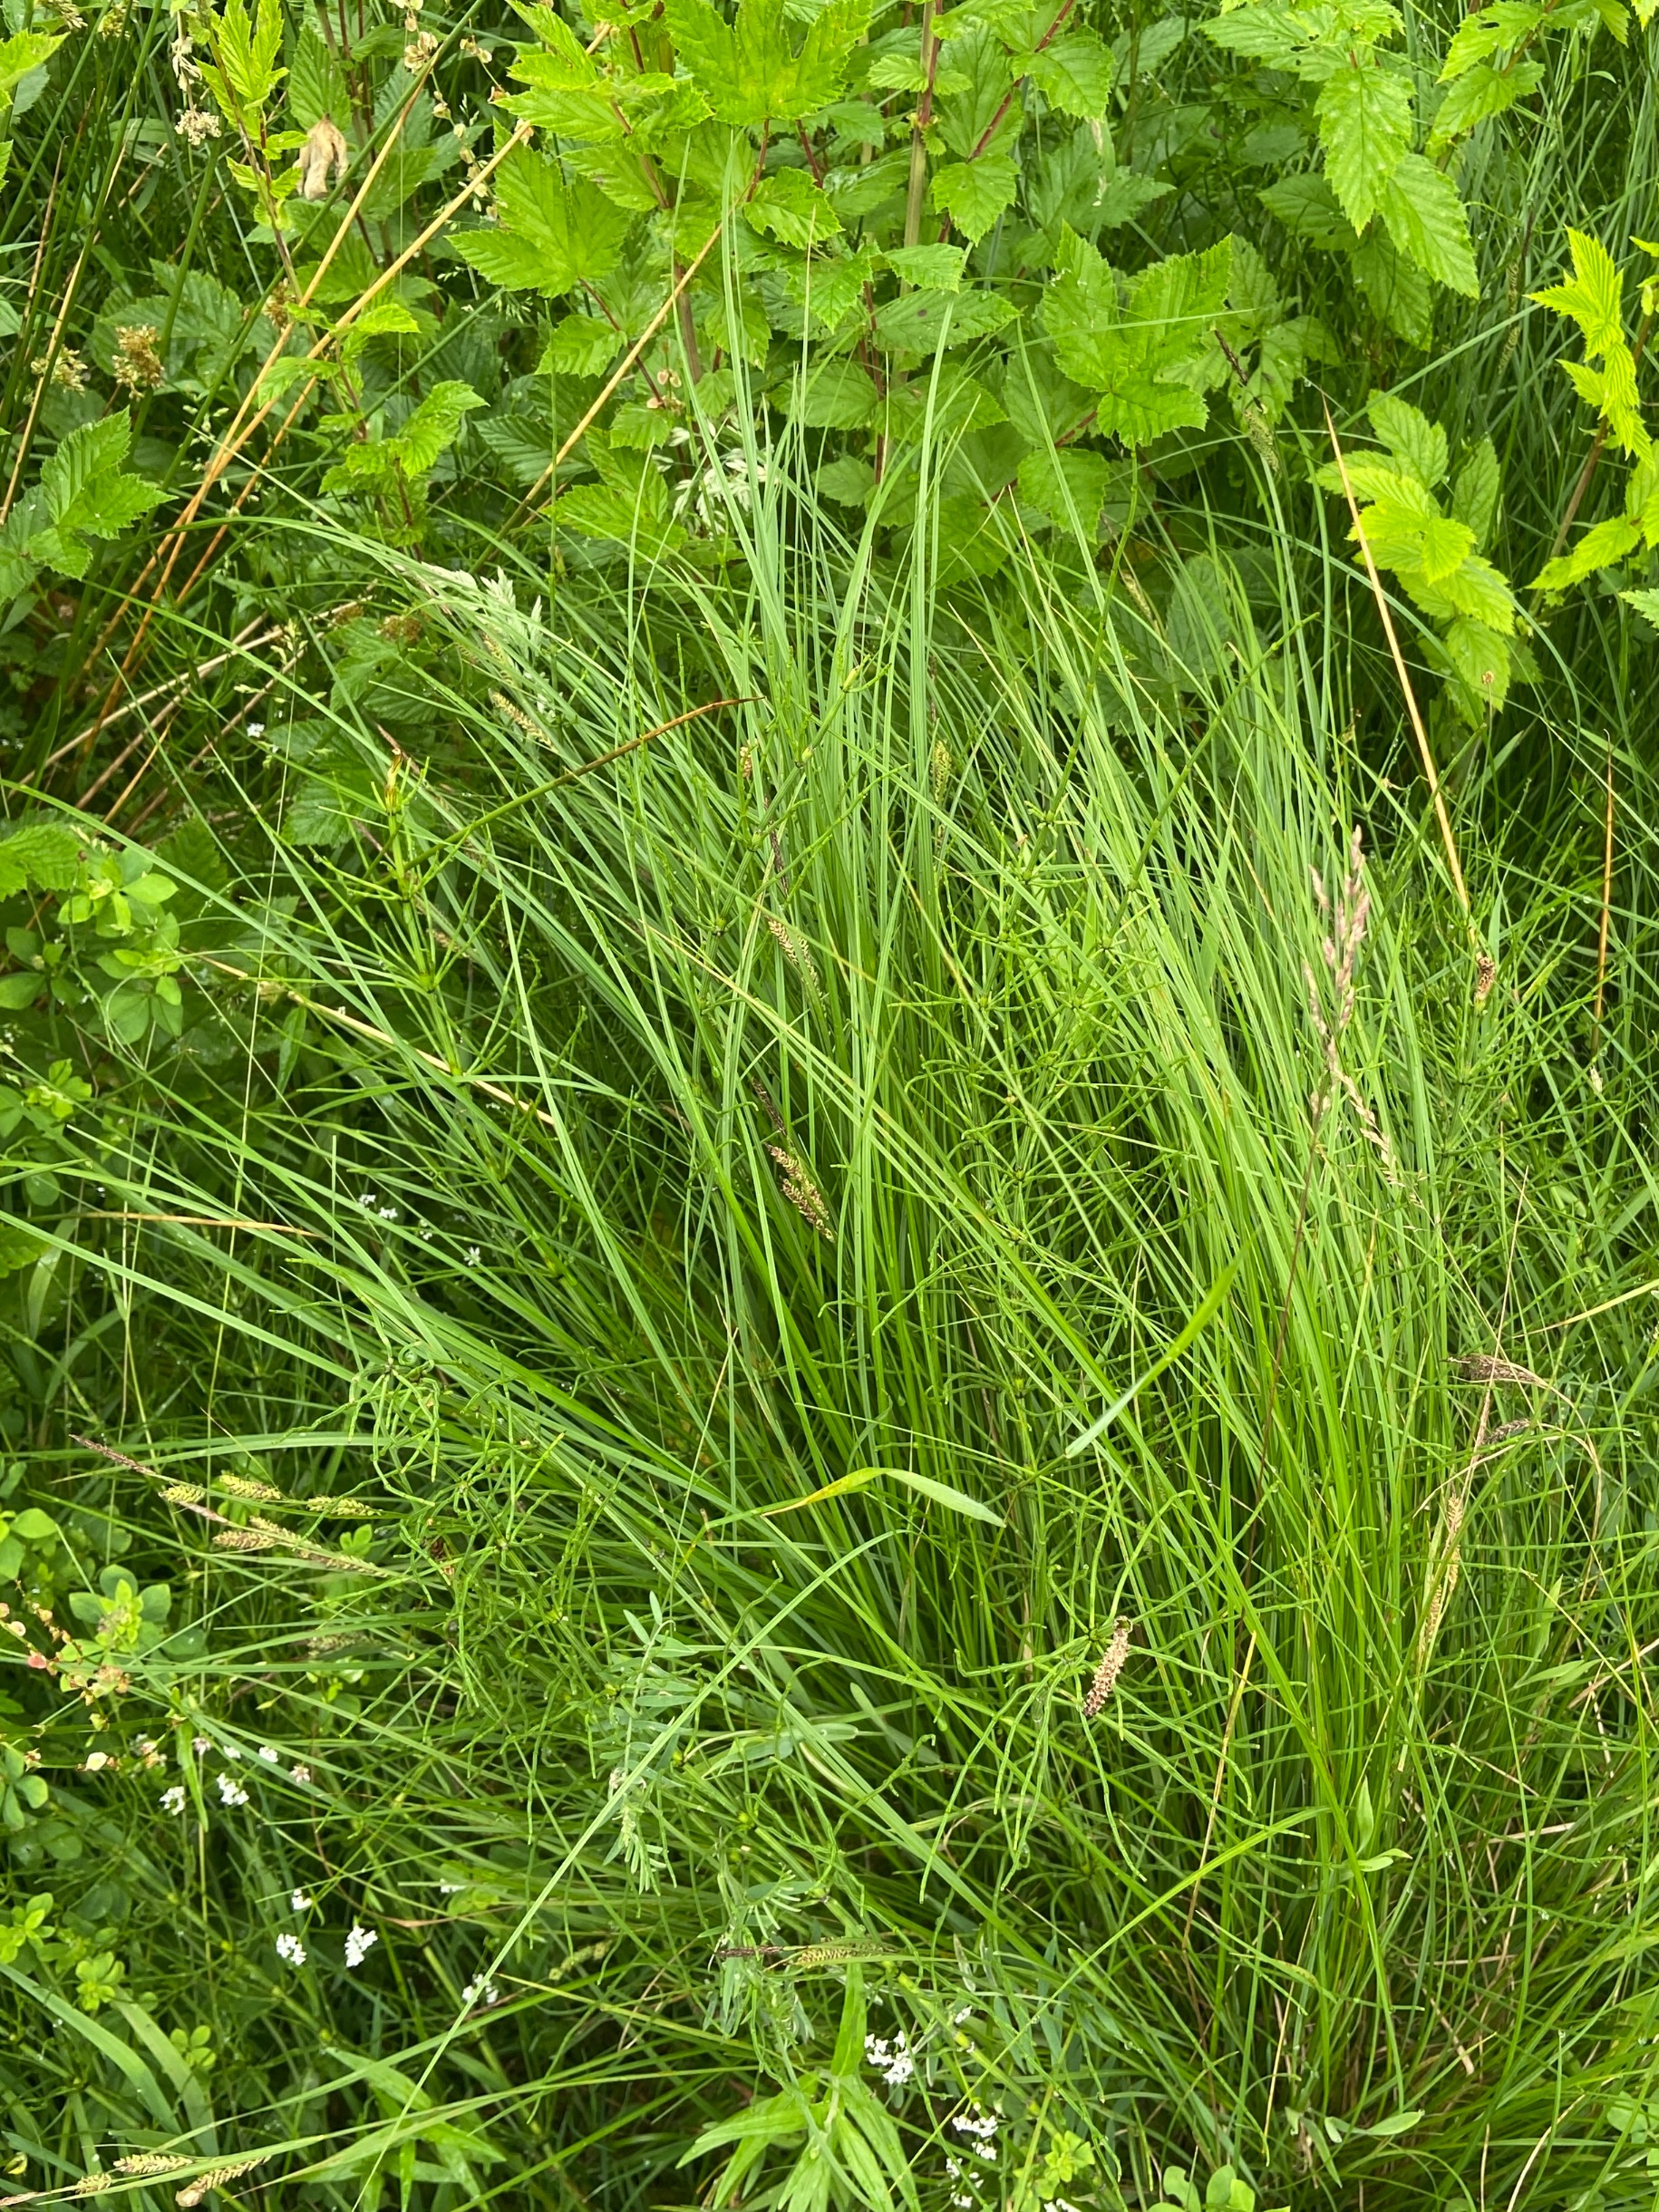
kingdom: Plantae
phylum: Tracheophyta
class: Liliopsida
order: Poales
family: Cyperaceae
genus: Carex
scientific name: Carex nigra
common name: Almindelig star
